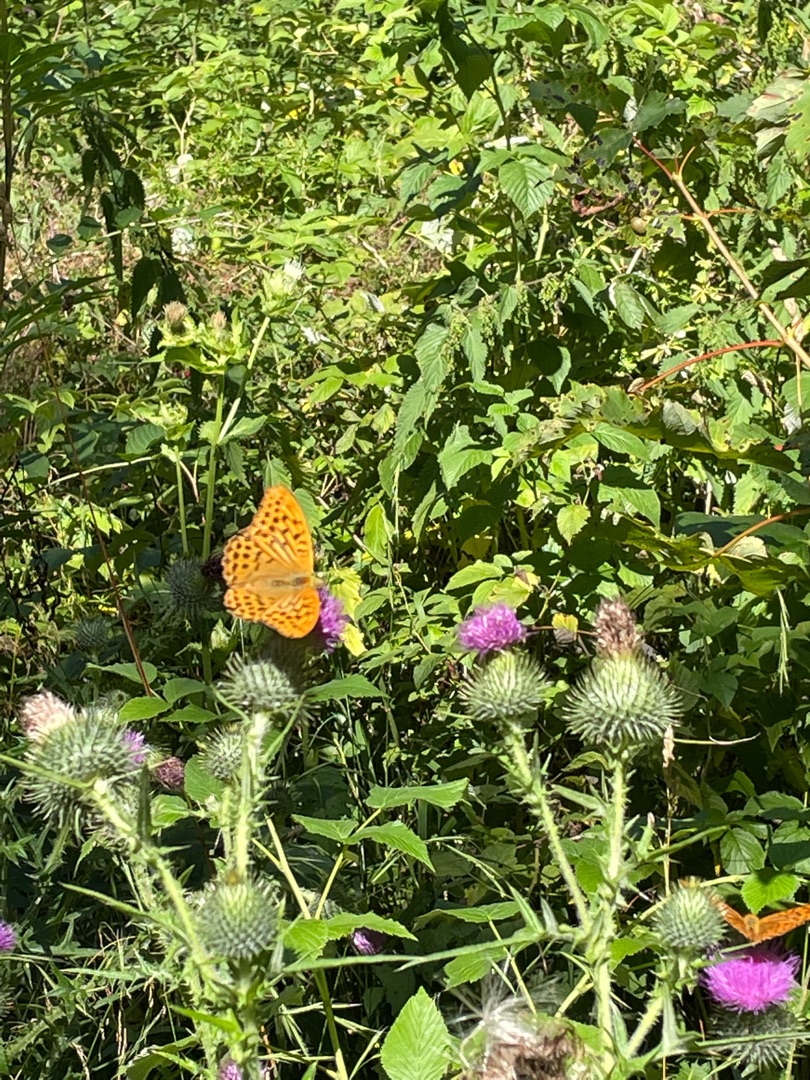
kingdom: Animalia
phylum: Arthropoda
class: Insecta
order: Lepidoptera
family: Nymphalidae
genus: Argynnis
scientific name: Argynnis paphia
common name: Kejserkåbe
